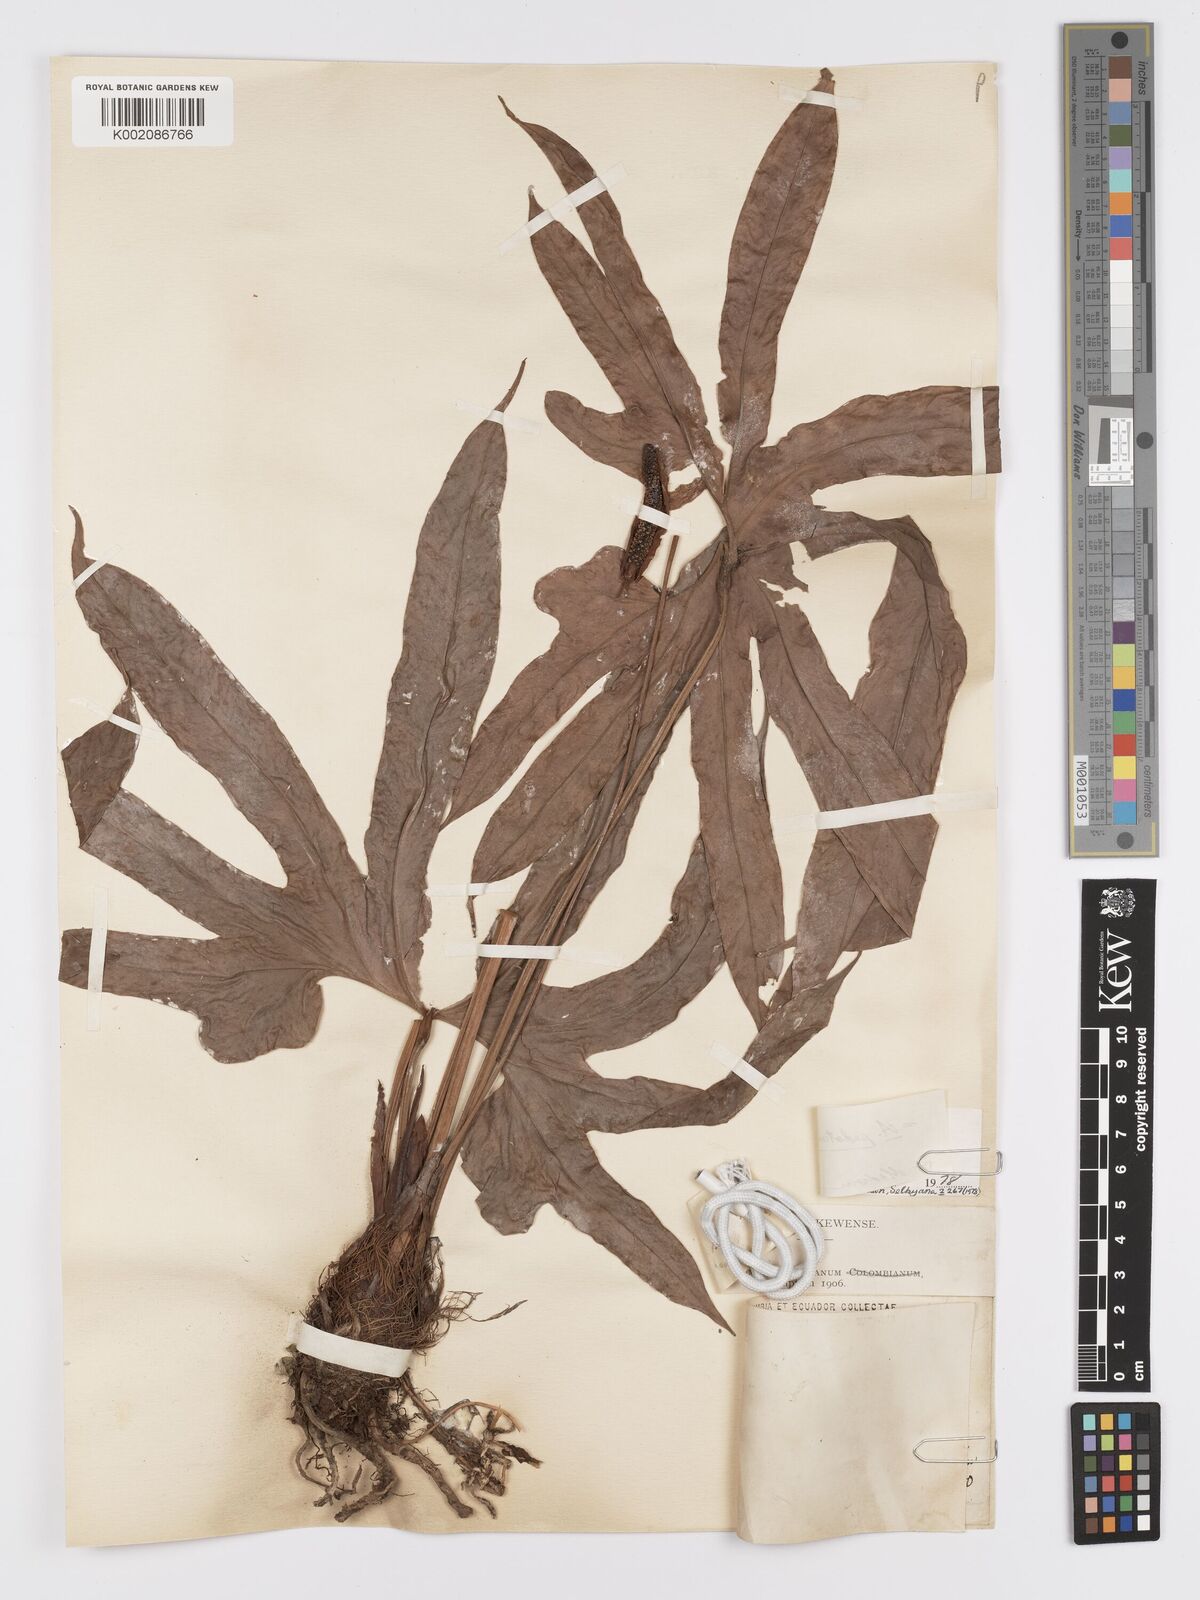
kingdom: Plantae
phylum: Tracheophyta
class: Liliopsida
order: Alismatales
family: Araceae
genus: Anthurium
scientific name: Anthurium pedatum
